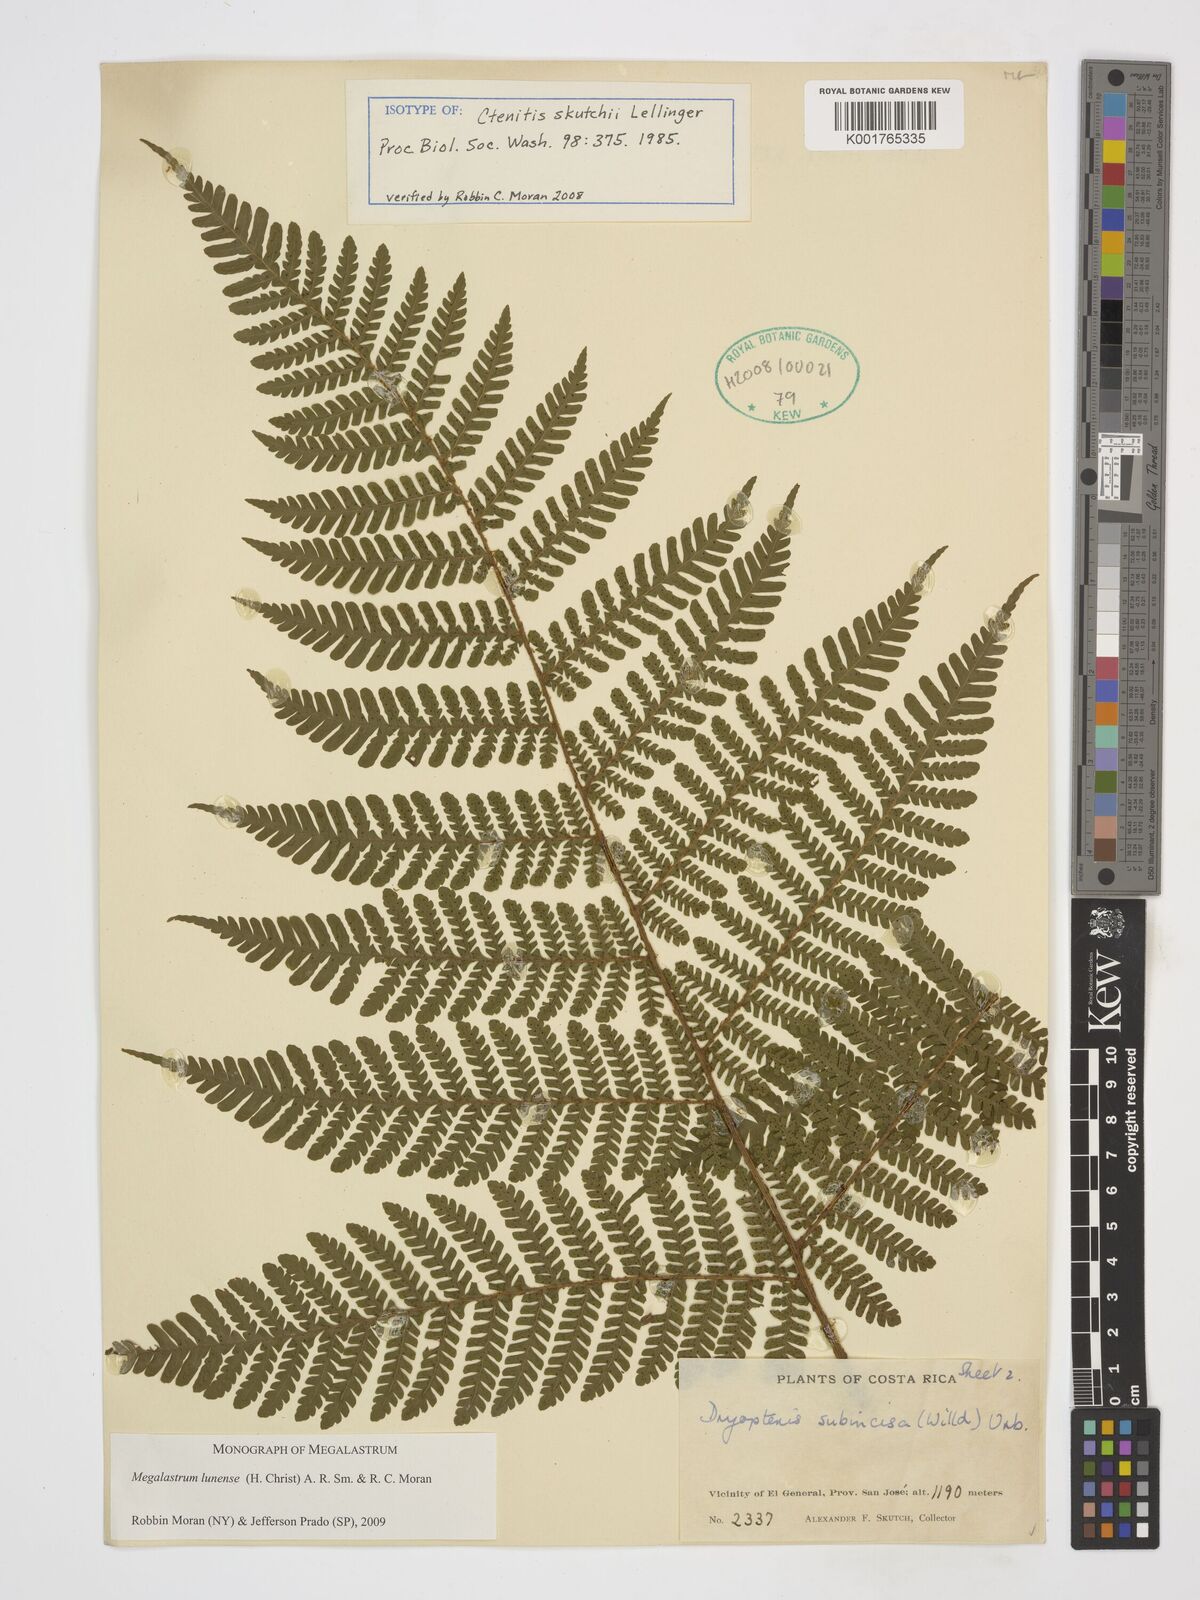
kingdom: Plantae
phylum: Tracheophyta
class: Polypodiopsida
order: Polypodiales
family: Dryopteridaceae
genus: Megalastrum
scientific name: Megalastrum lunense
